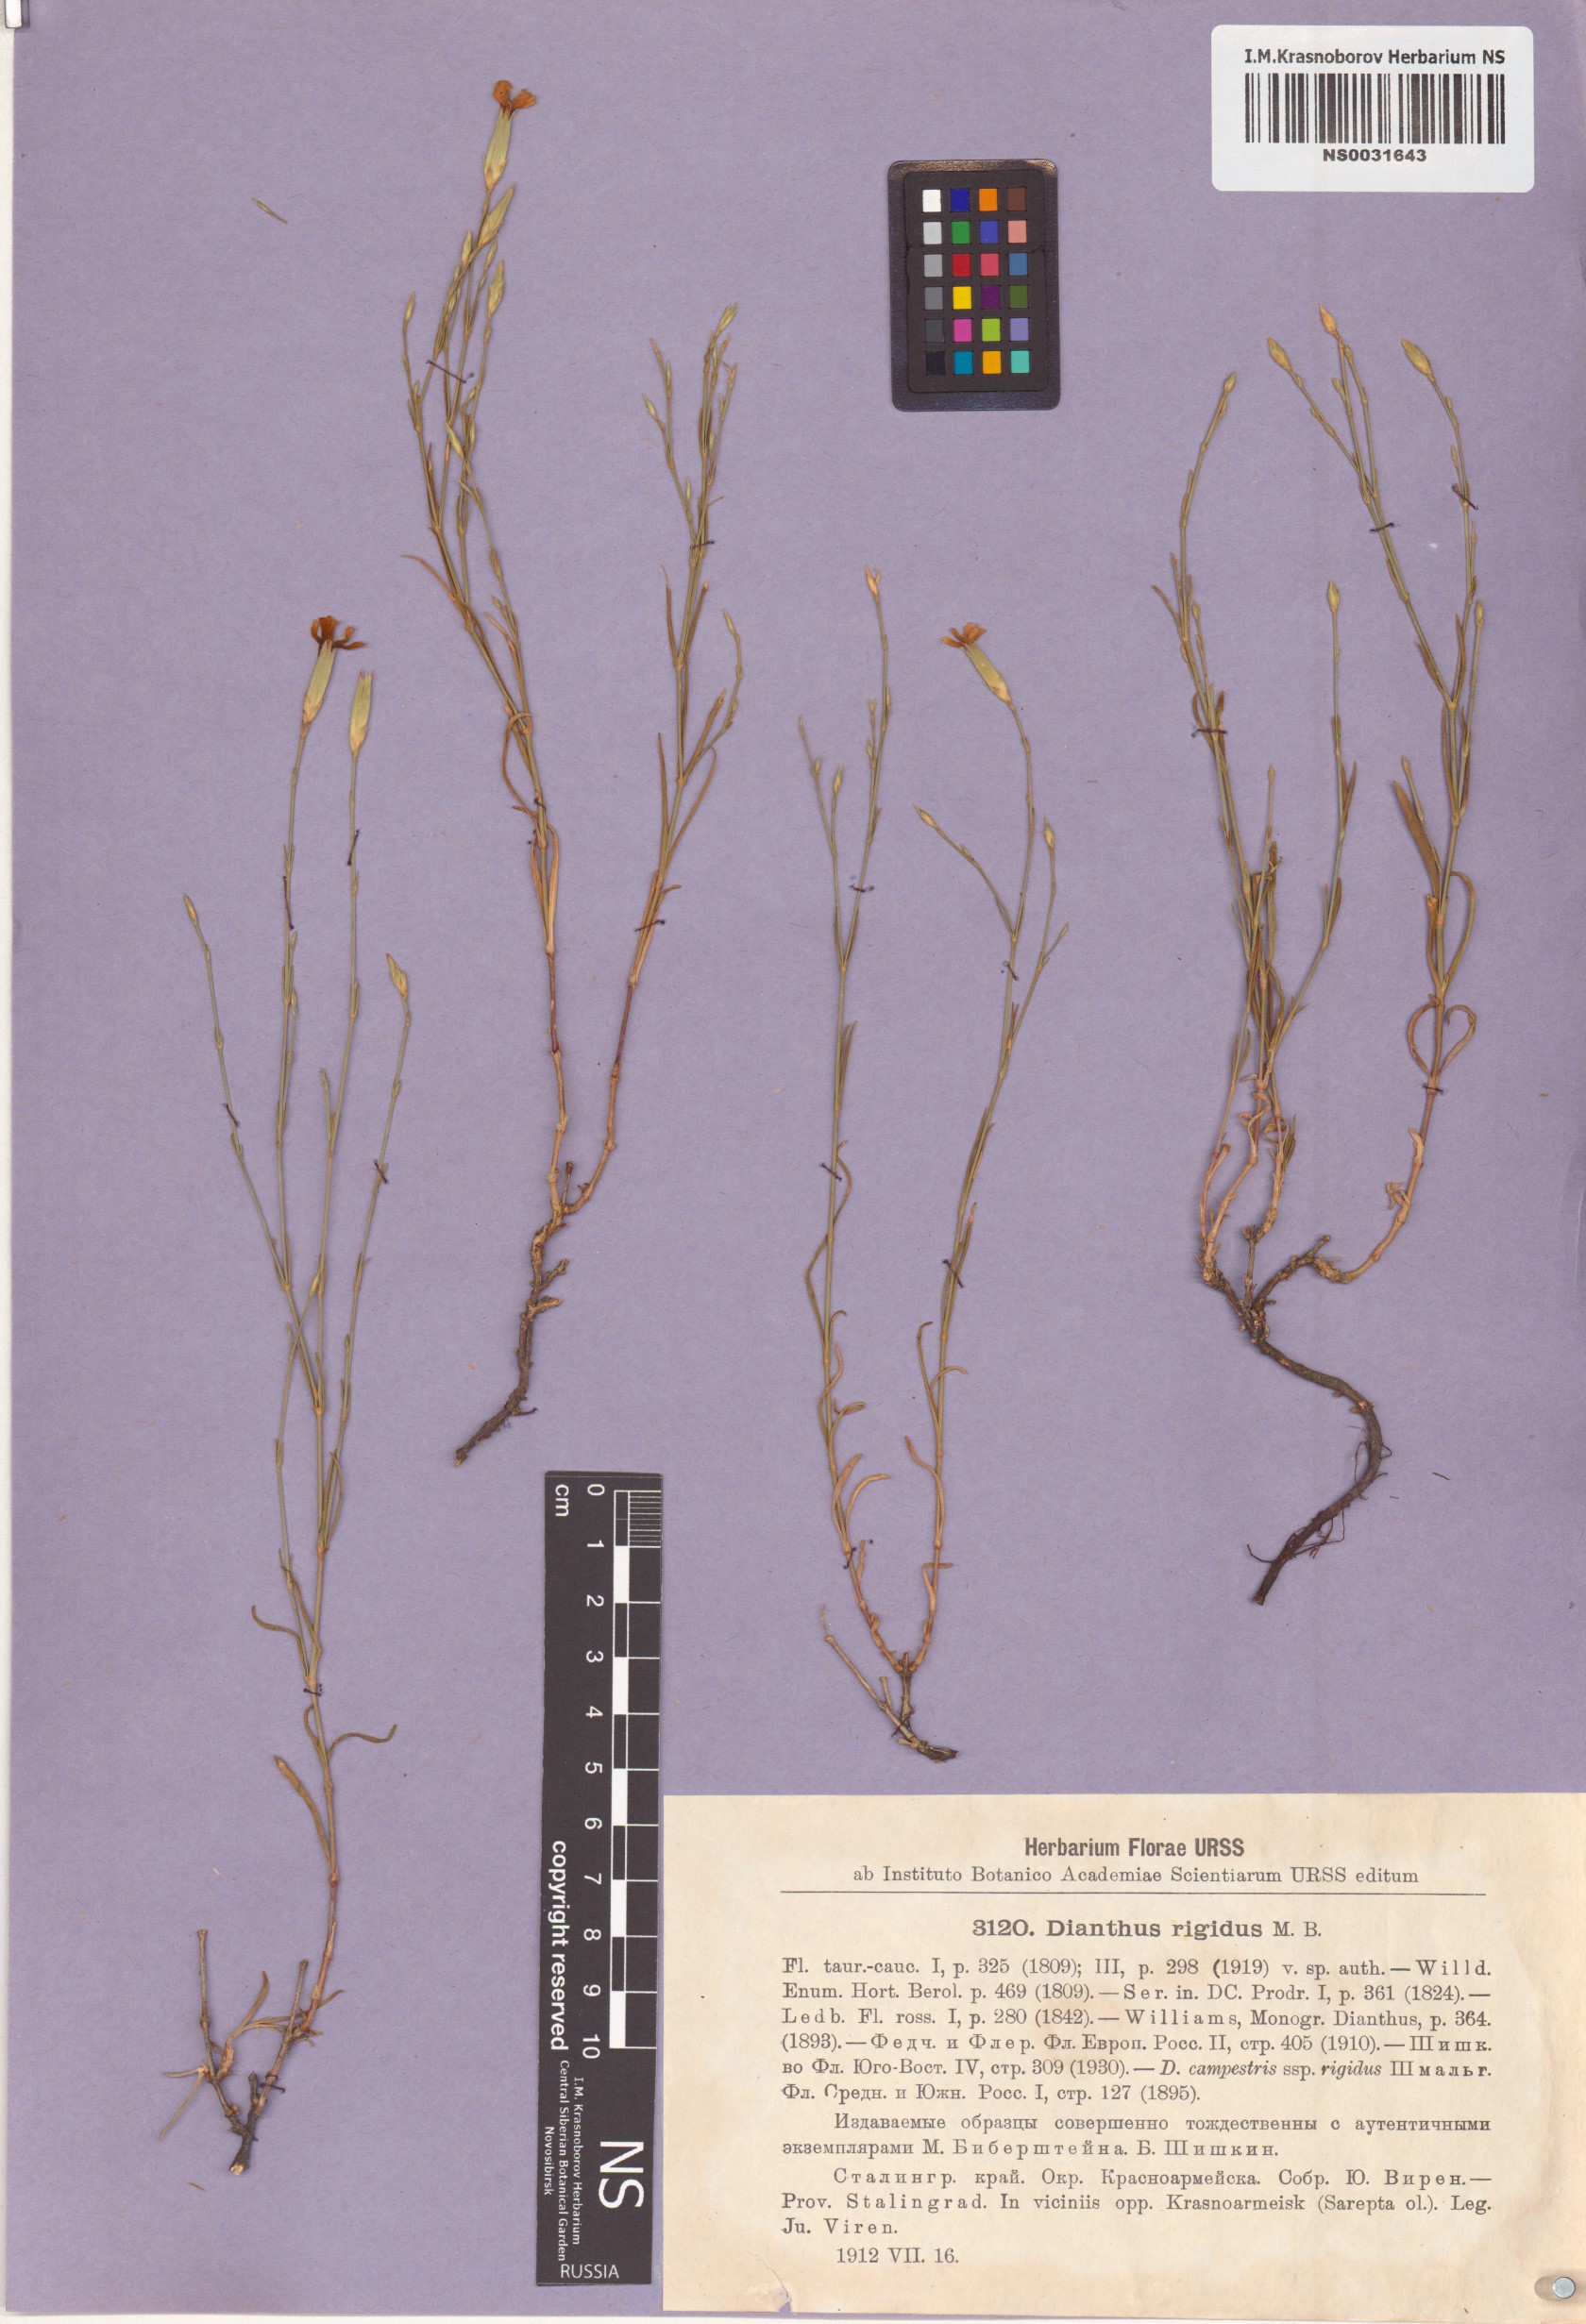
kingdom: Plantae
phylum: Tracheophyta
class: Magnoliopsida
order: Caryophyllales
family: Caryophyllaceae
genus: Dianthus
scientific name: Dianthus rigidus
